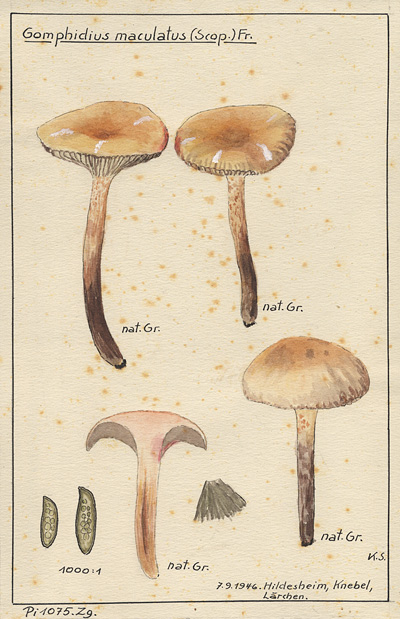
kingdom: Fungi
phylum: Basidiomycota
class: Agaricomycetes
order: Boletales
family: Gomphidiaceae
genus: Gomphidius
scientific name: Gomphidius maculatus
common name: Larch spike
